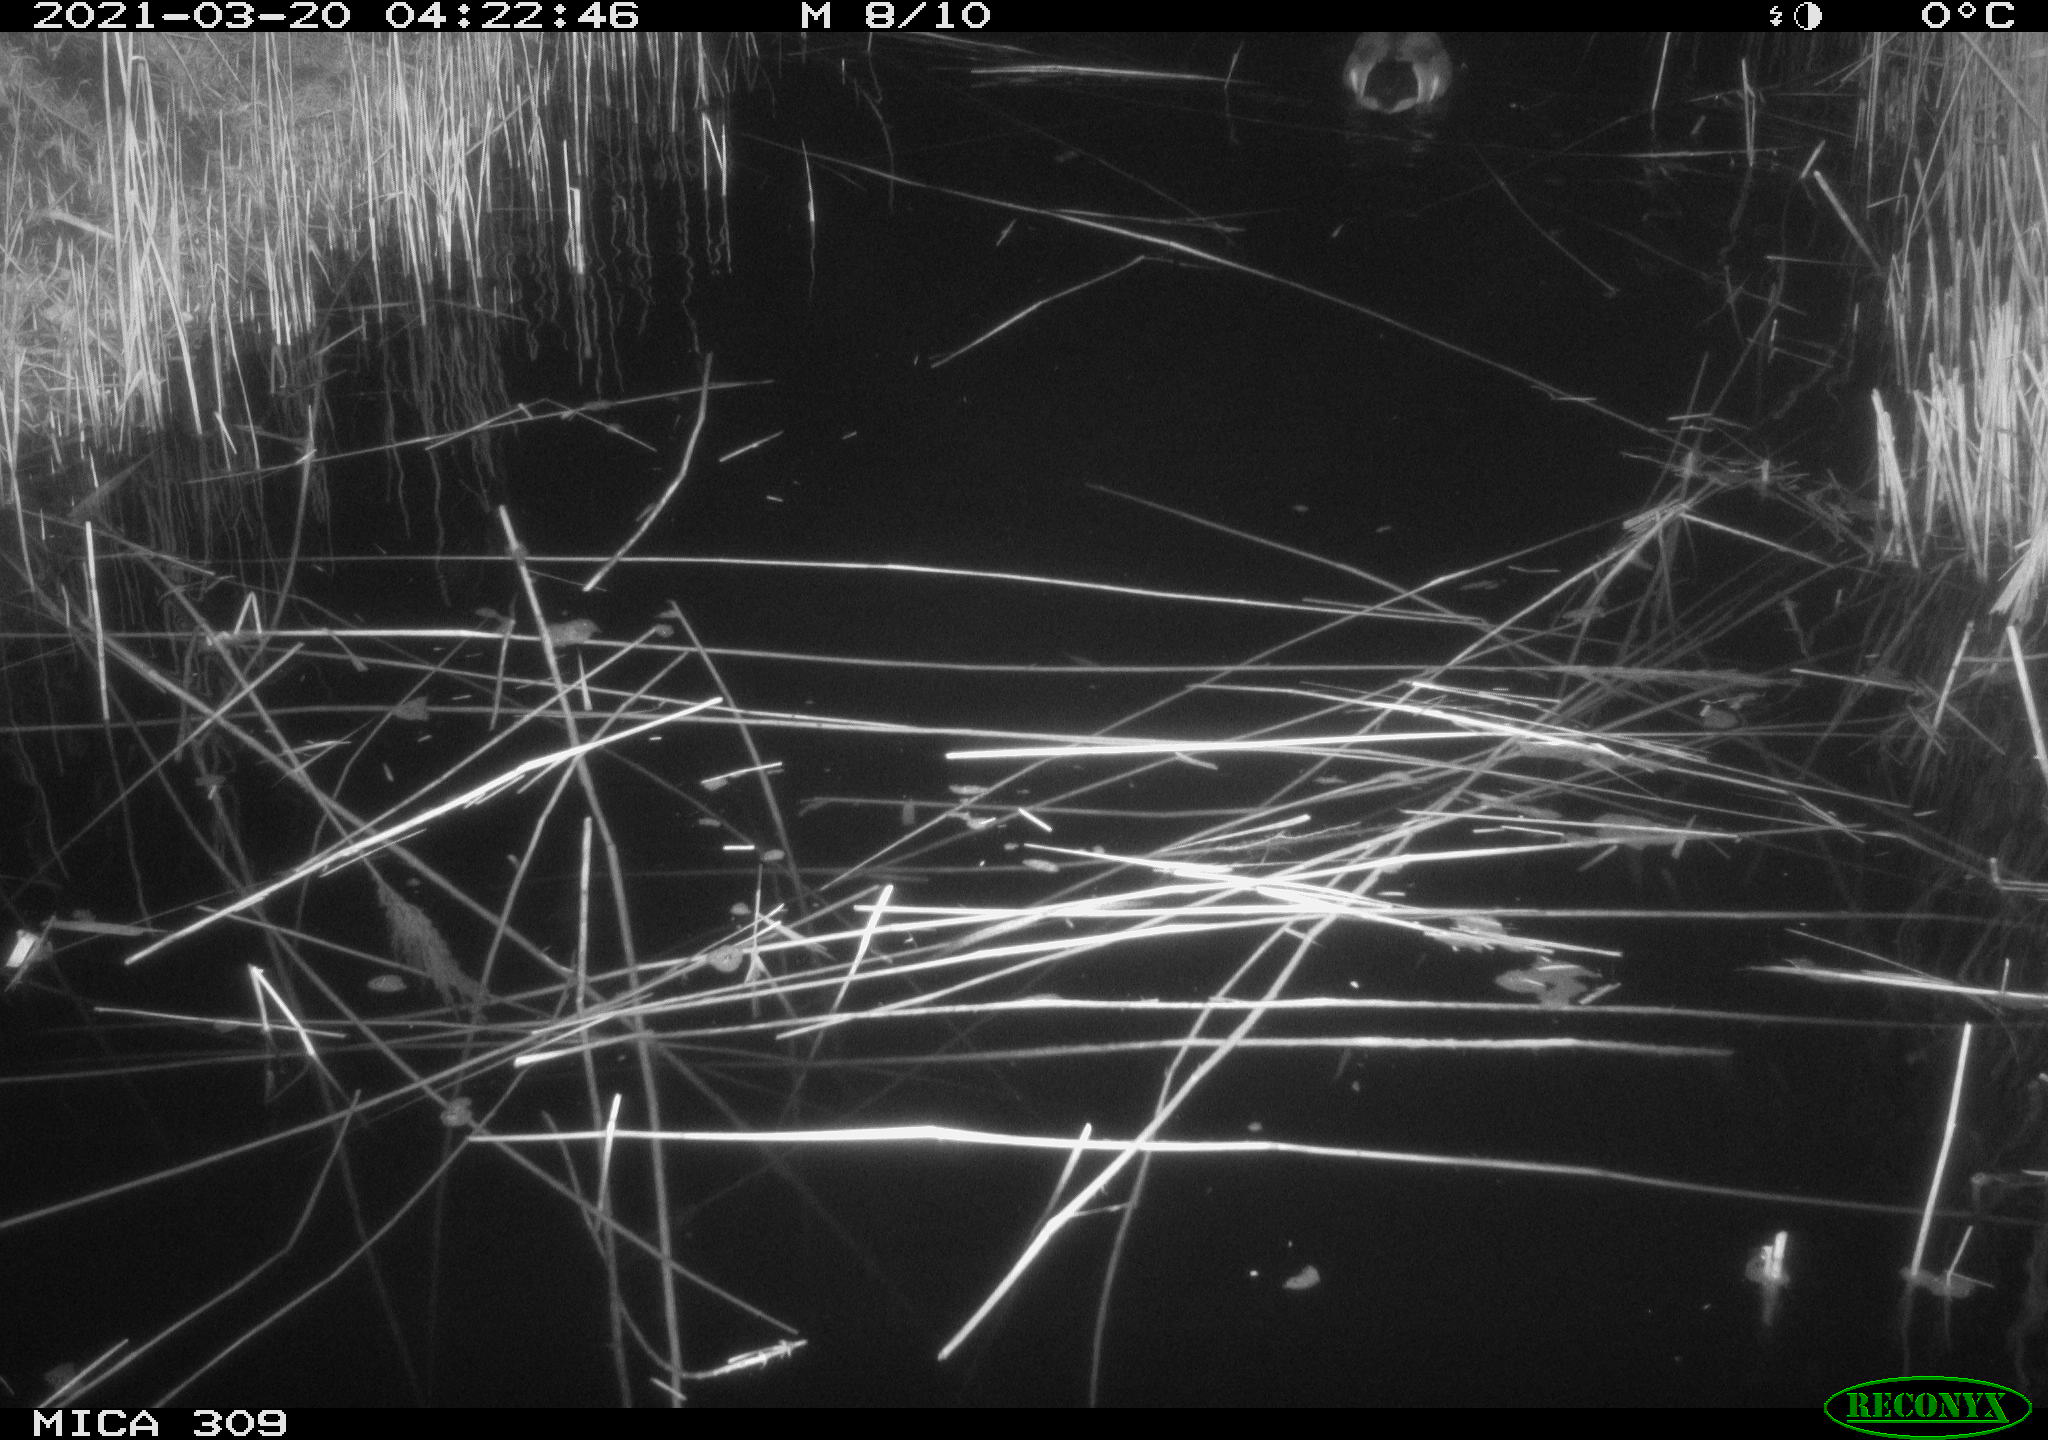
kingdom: Animalia
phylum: Chordata
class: Aves
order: Anseriformes
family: Anatidae
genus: Anas
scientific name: Anas platyrhynchos
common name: Mallard
